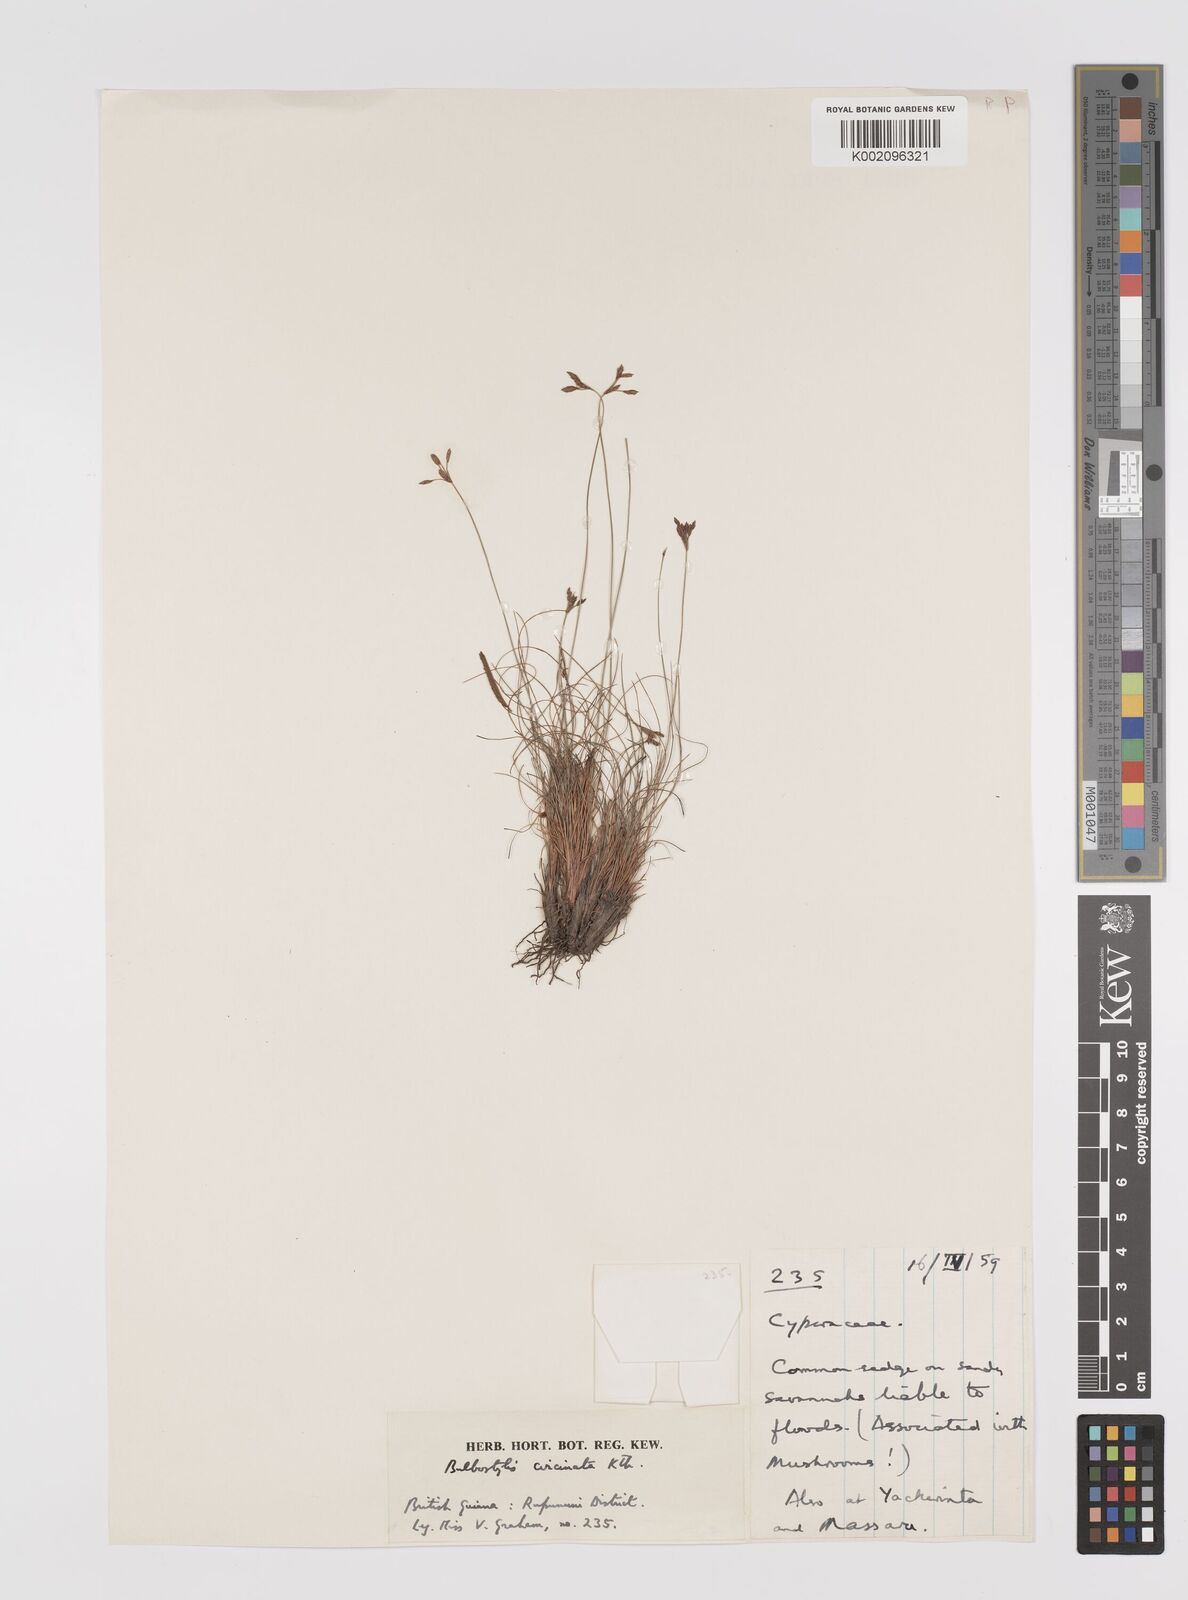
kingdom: Plantae
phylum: Tracheophyta
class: Liliopsida
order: Poales
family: Cyperaceae
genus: Bulbostylis
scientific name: Bulbostylis circinata
